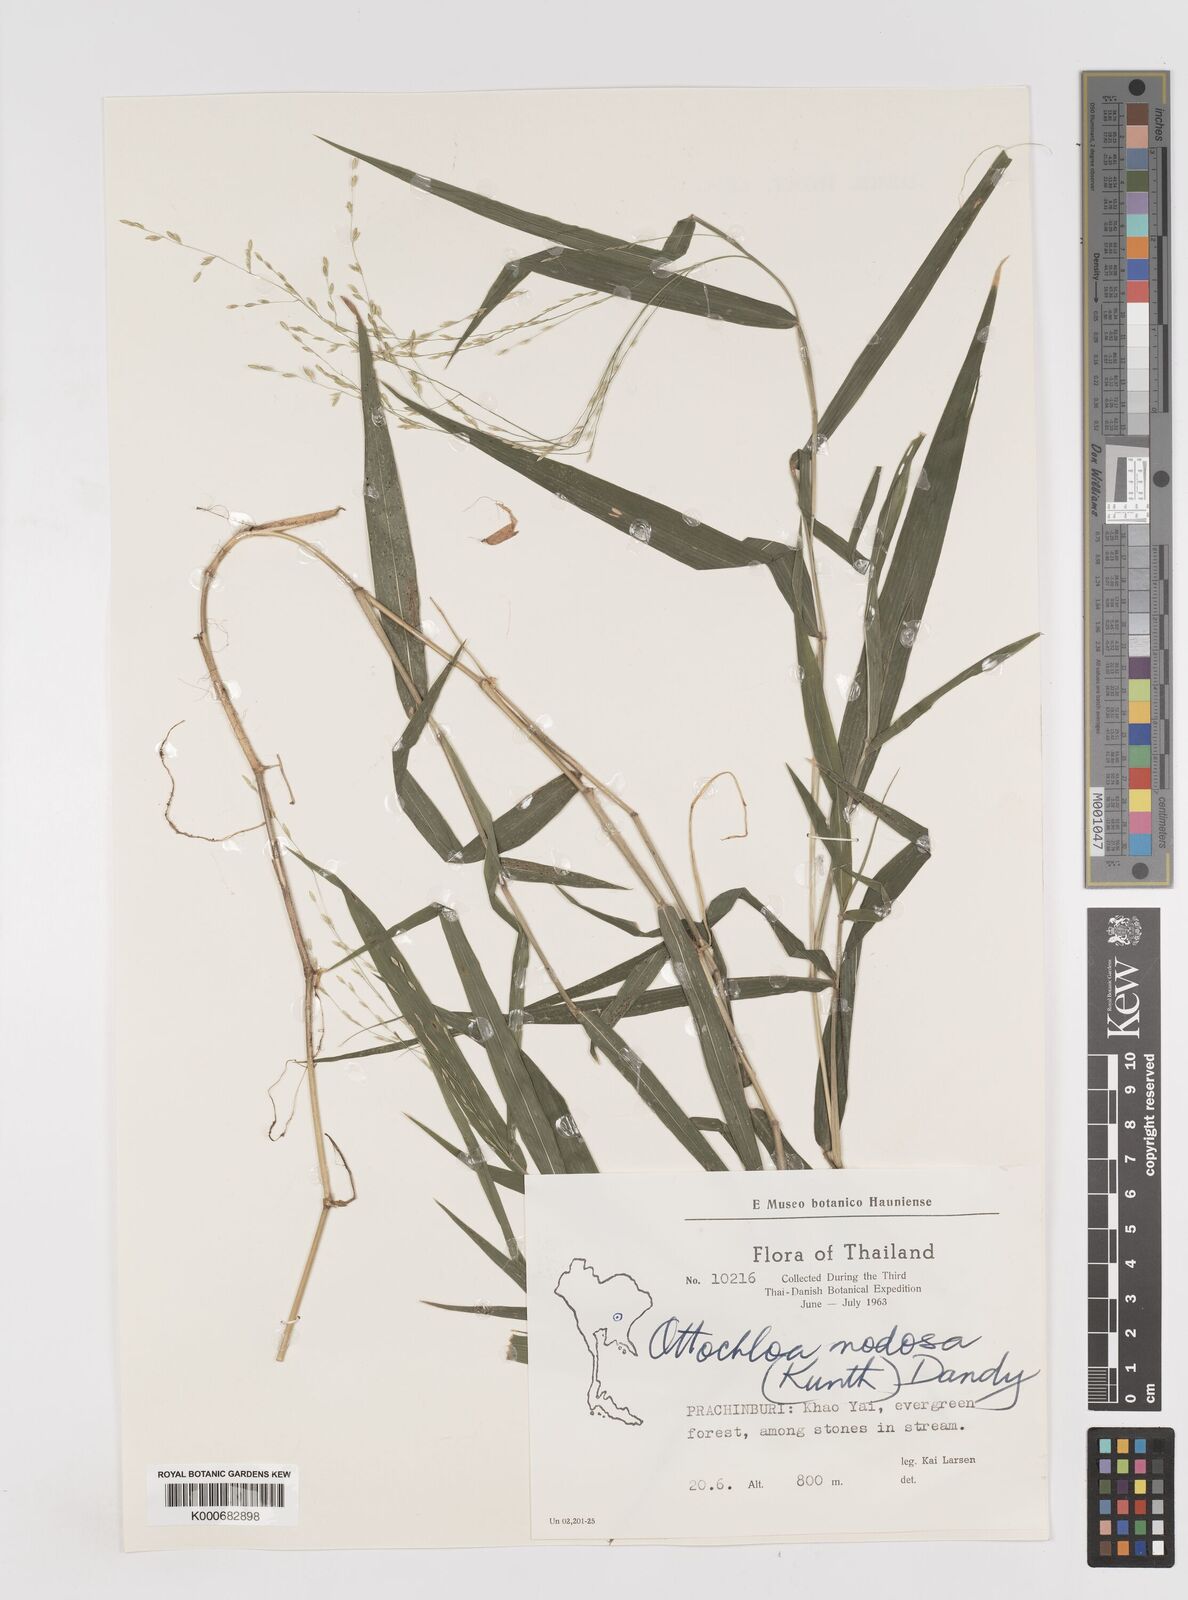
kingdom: Plantae
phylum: Tracheophyta
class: Liliopsida
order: Poales
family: Poaceae
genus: Ottochloa
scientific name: Ottochloa nodosa
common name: Slender-panic grass
